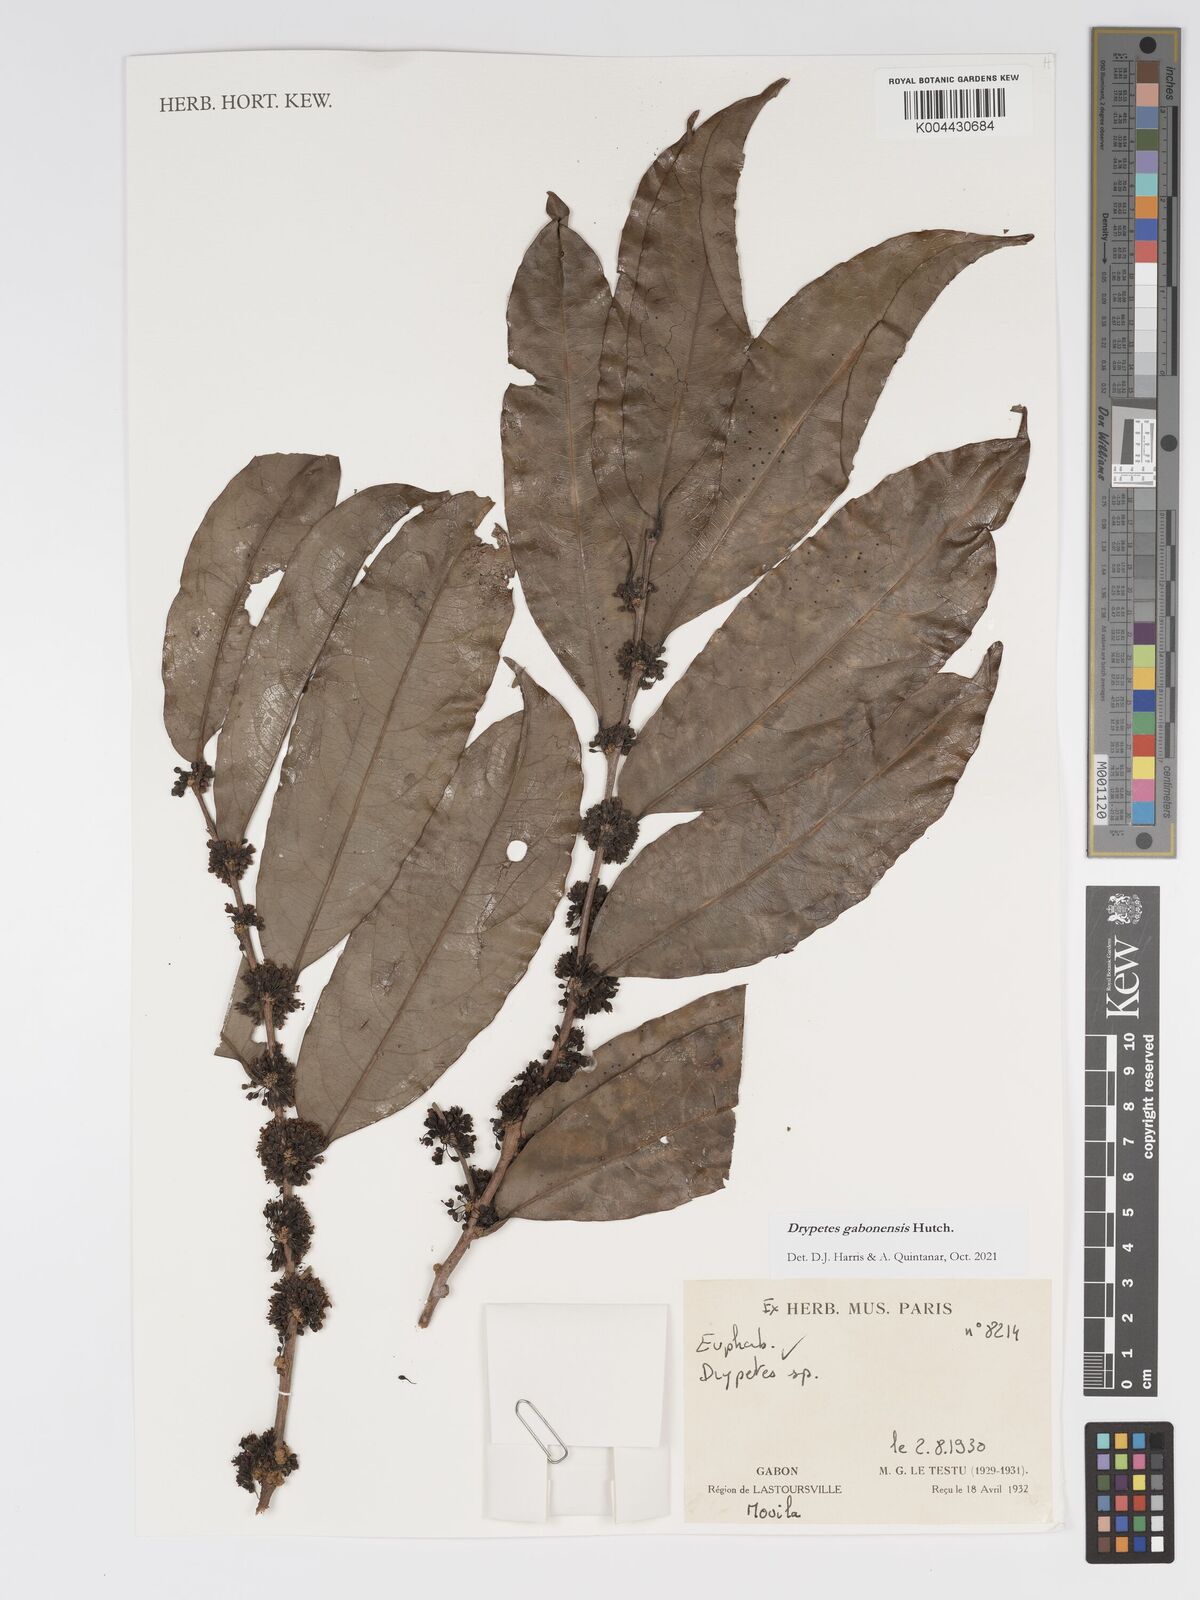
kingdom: Plantae
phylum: Tracheophyta
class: Magnoliopsida
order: Malpighiales
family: Putranjivaceae
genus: Drypetes
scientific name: Drypetes gabonensis
